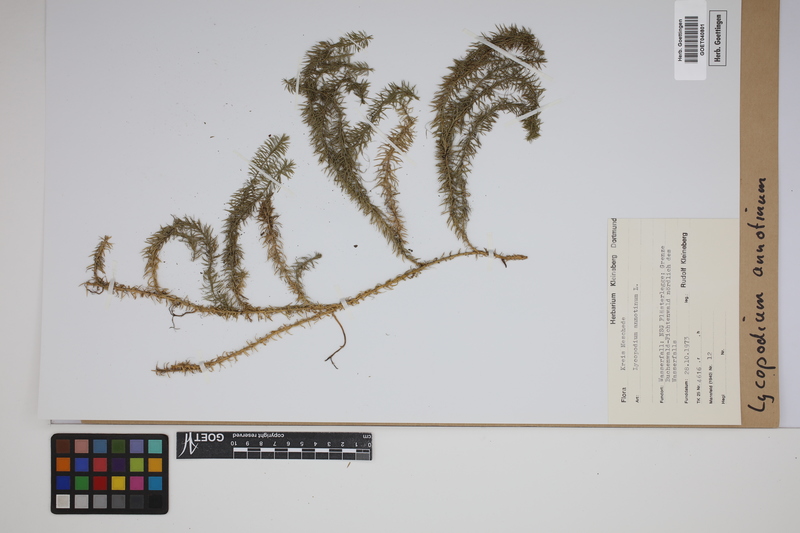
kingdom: Plantae
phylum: Tracheophyta
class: Lycopodiopsida
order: Lycopodiales
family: Lycopodiaceae
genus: Spinulum
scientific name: Spinulum annotinum
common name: Interrupted club-moss
